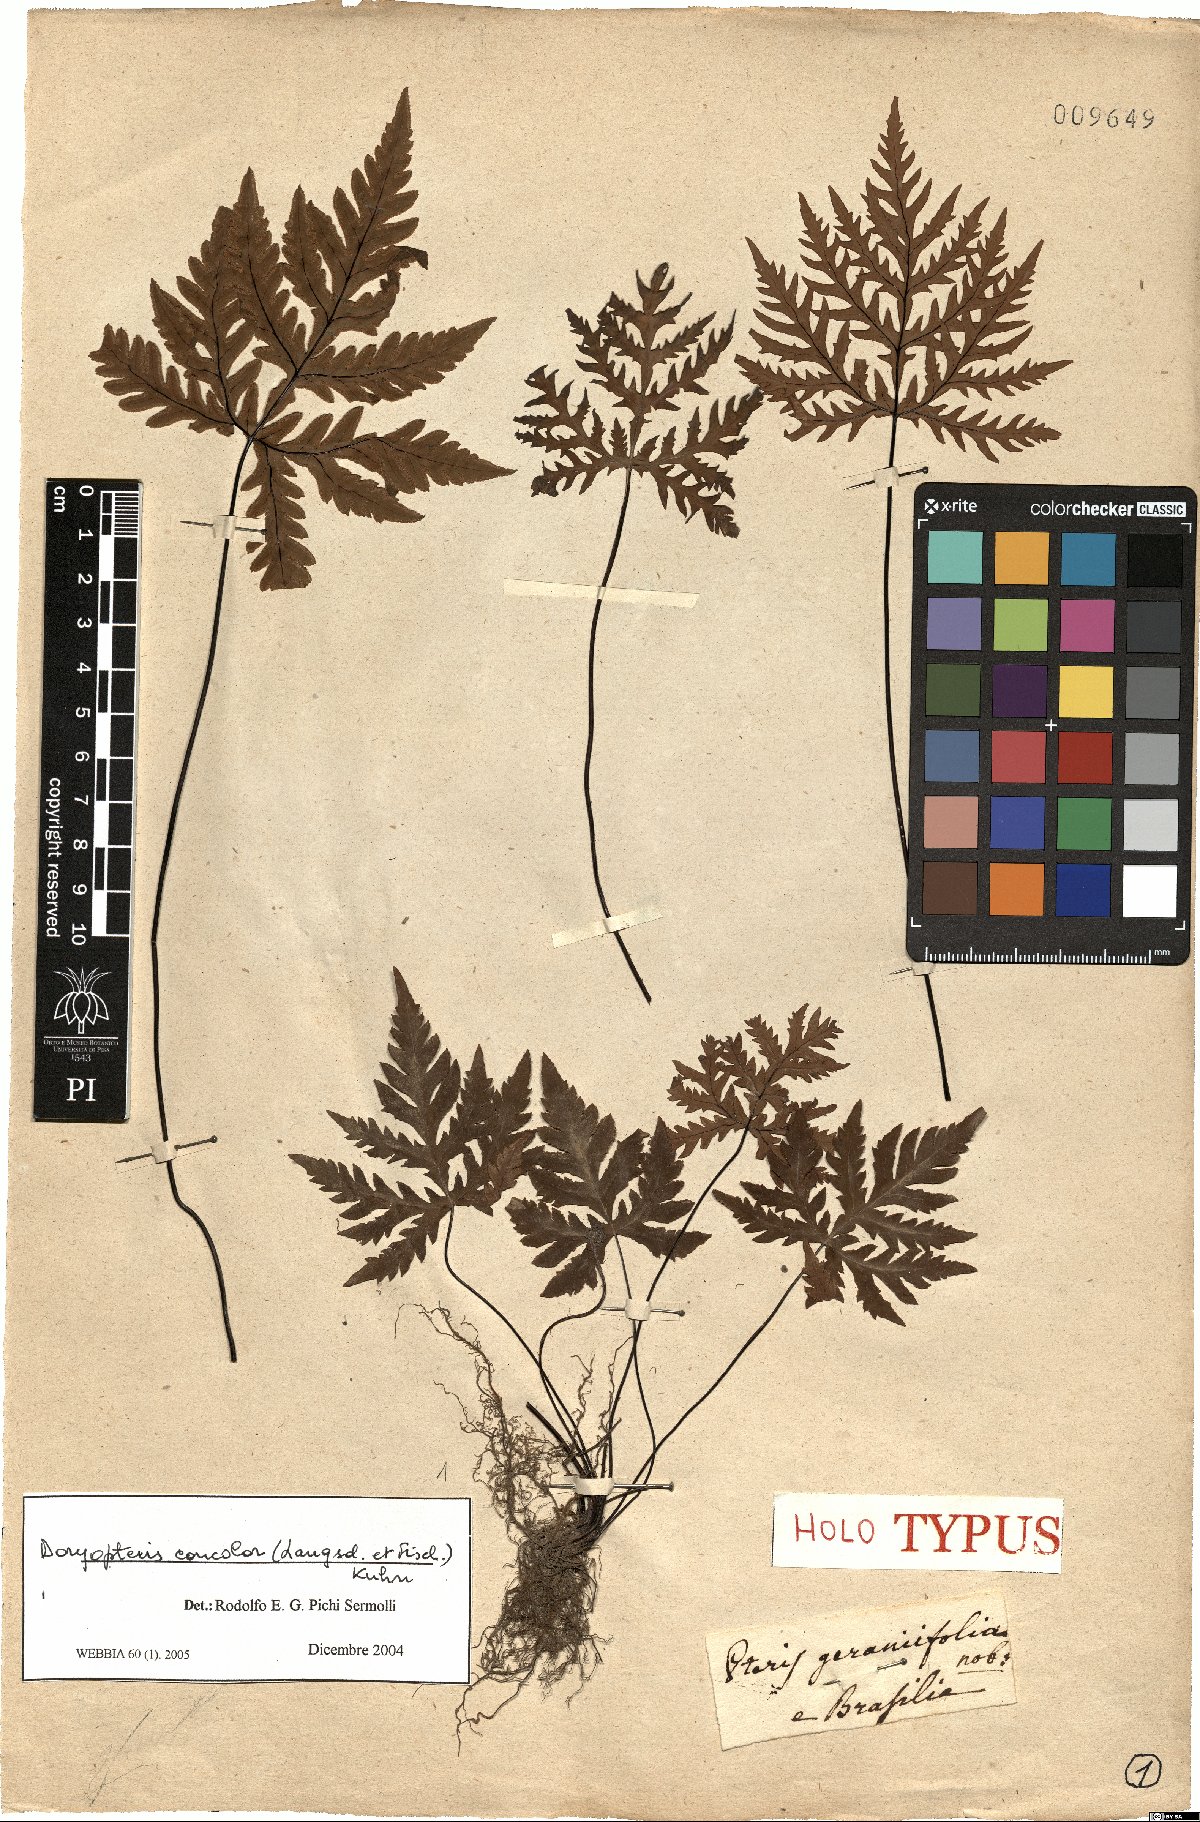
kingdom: Plantae
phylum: Tracheophyta
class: Polypodiopsida
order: Polypodiales
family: Pteridaceae
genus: Doryopteris
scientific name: Doryopteris concolor
